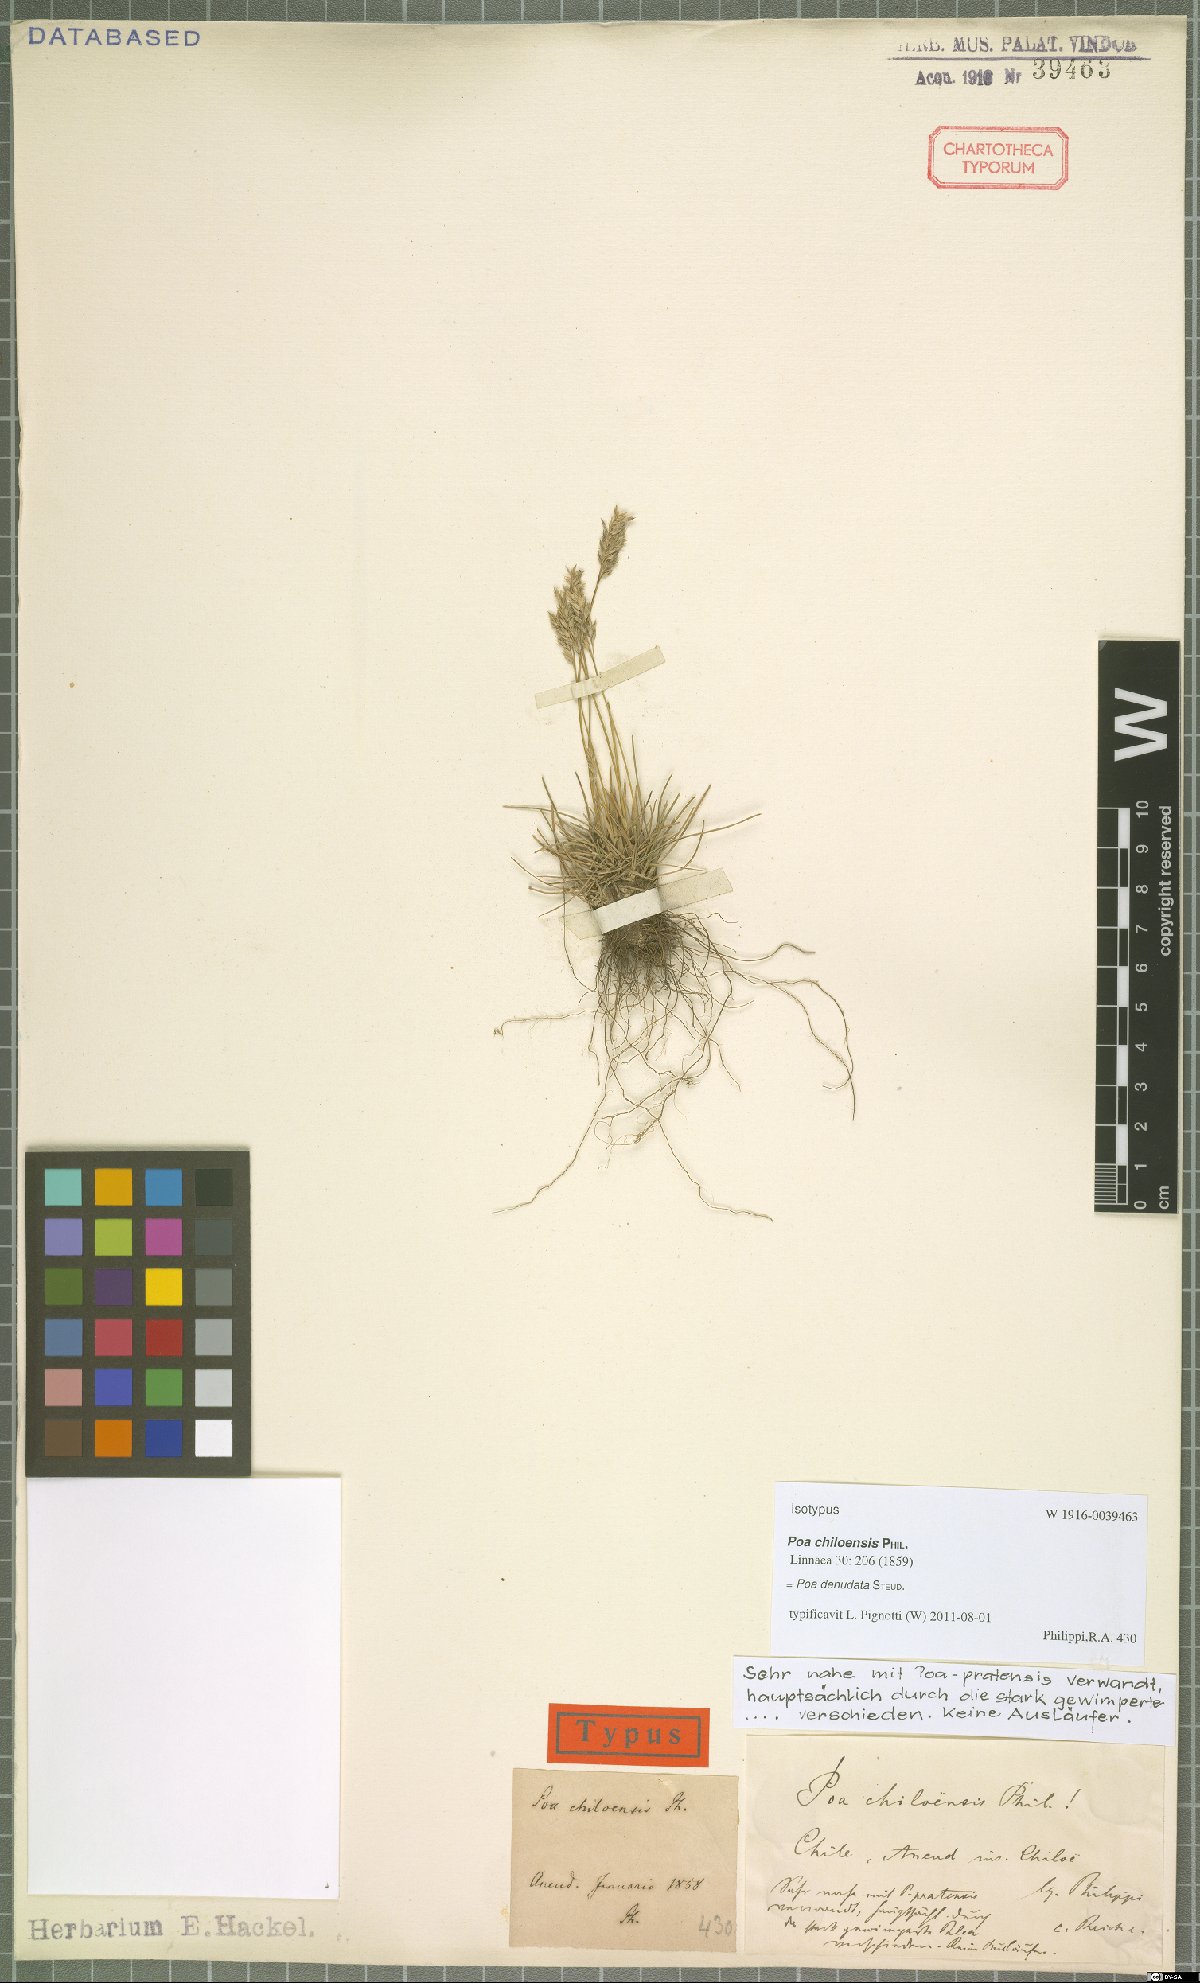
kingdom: Plantae
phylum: Tracheophyta
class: Liliopsida
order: Poales
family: Poaceae
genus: Poa
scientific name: Poa denudata
